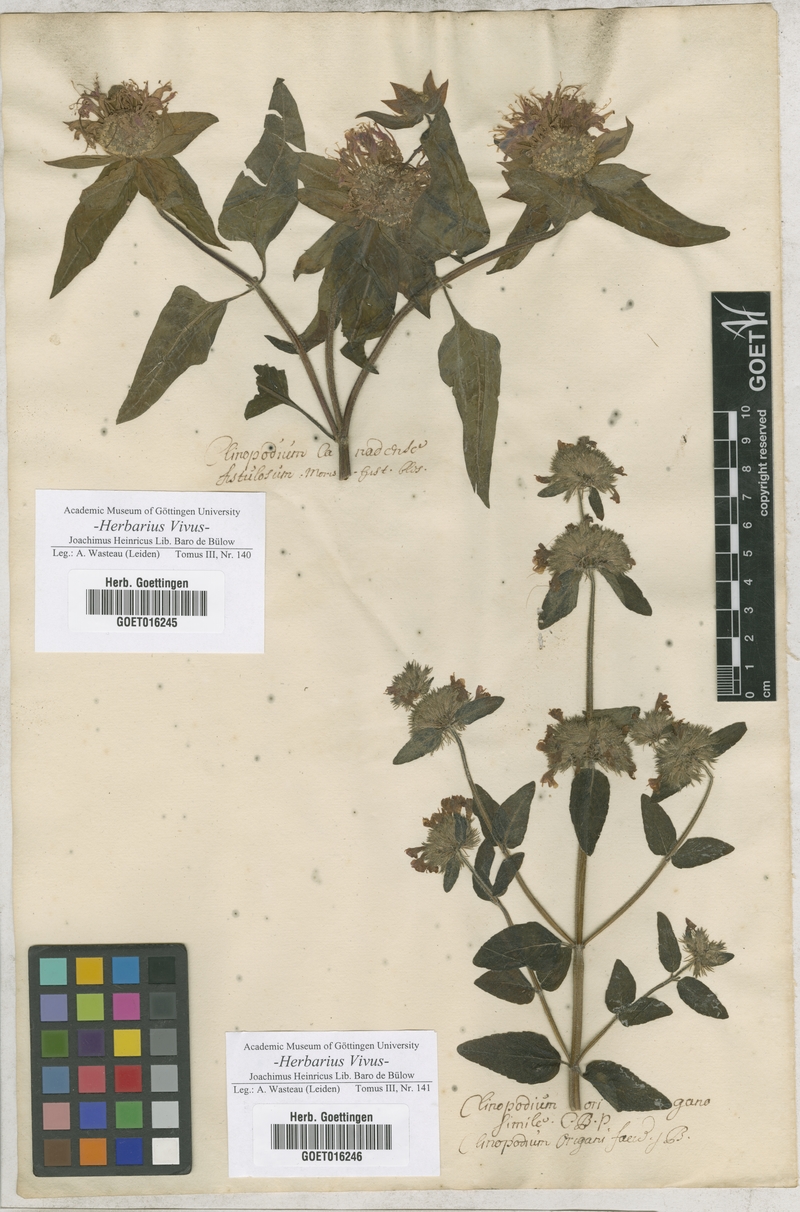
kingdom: Plantae
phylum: Tracheophyta
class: Magnoliopsida
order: Lamiales
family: Lamiaceae
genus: Monarda
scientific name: Monarda fistulosa
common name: Purple beebalm
